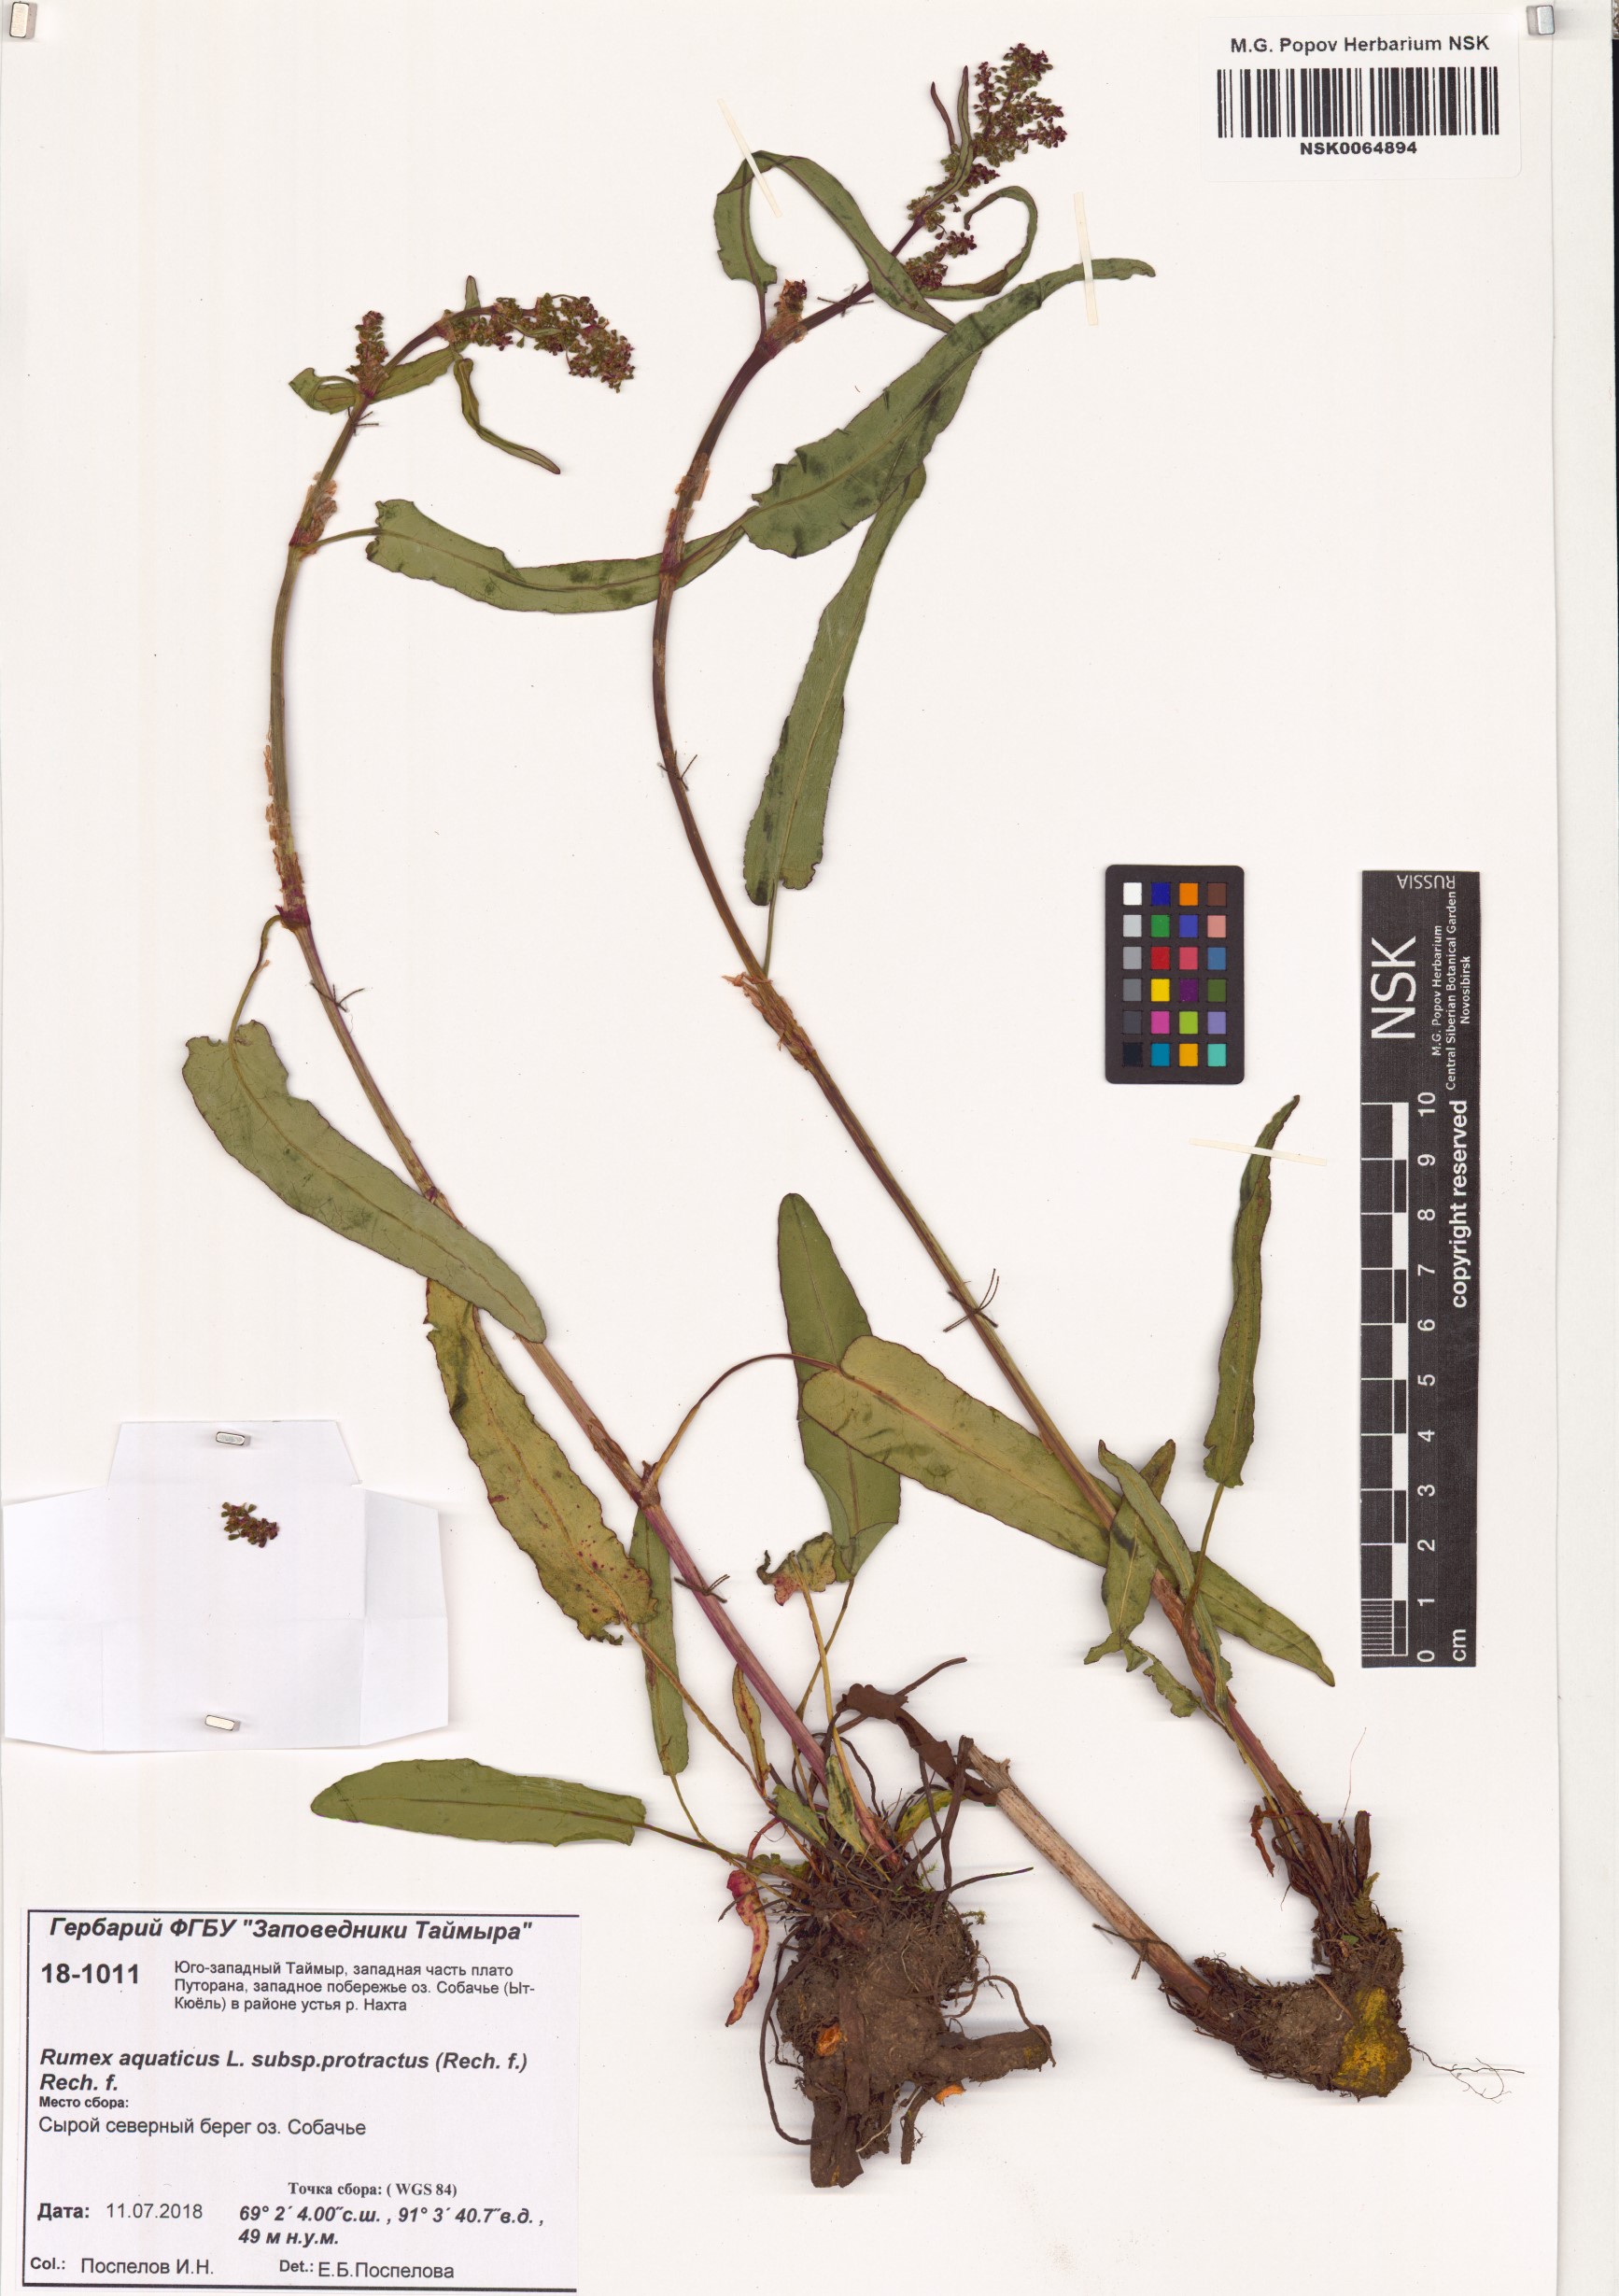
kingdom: Plantae
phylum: Tracheophyta
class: Magnoliopsida
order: Caryophyllales
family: Polygonaceae
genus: Rumex
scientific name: Rumex aquaticus
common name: Scottish dock
